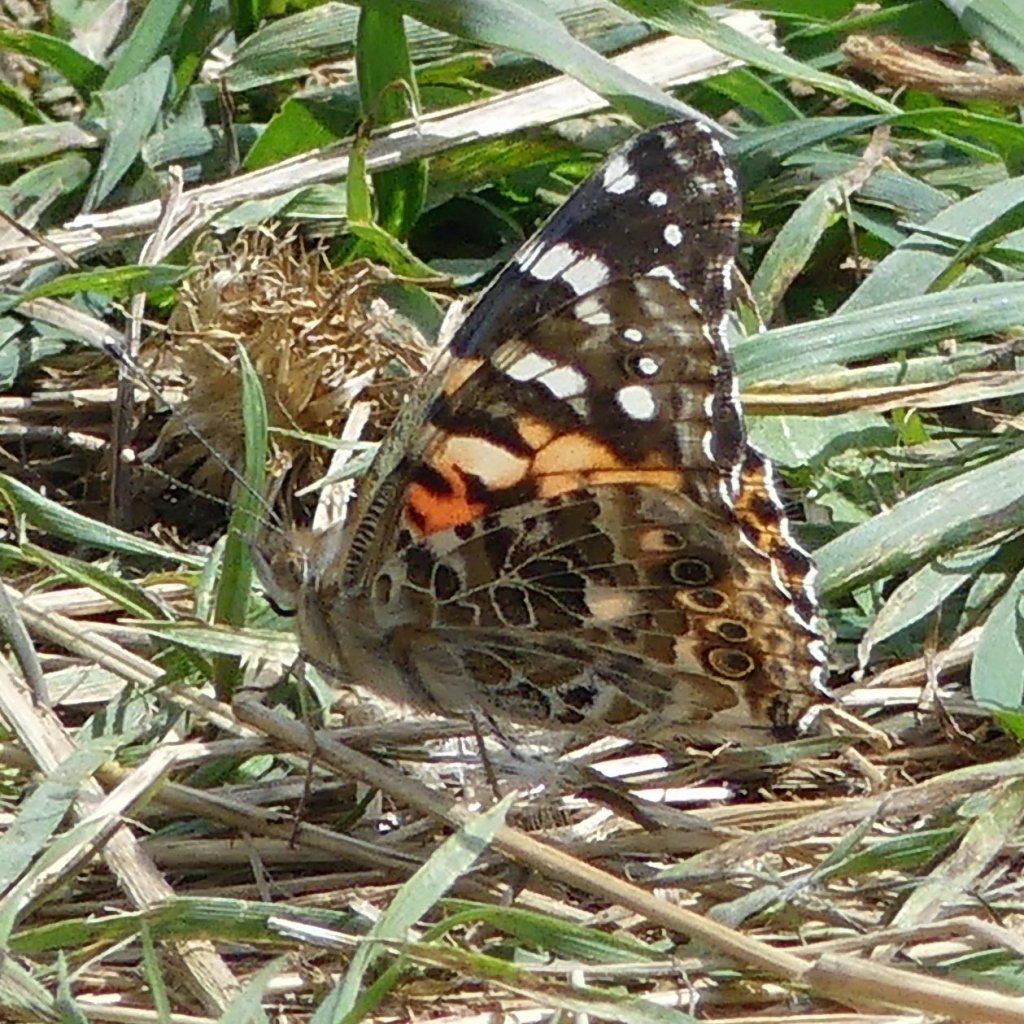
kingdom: Animalia
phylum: Arthropoda
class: Insecta
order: Lepidoptera
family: Nymphalidae
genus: Vanessa
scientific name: Vanessa cardui
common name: Painted Lady
